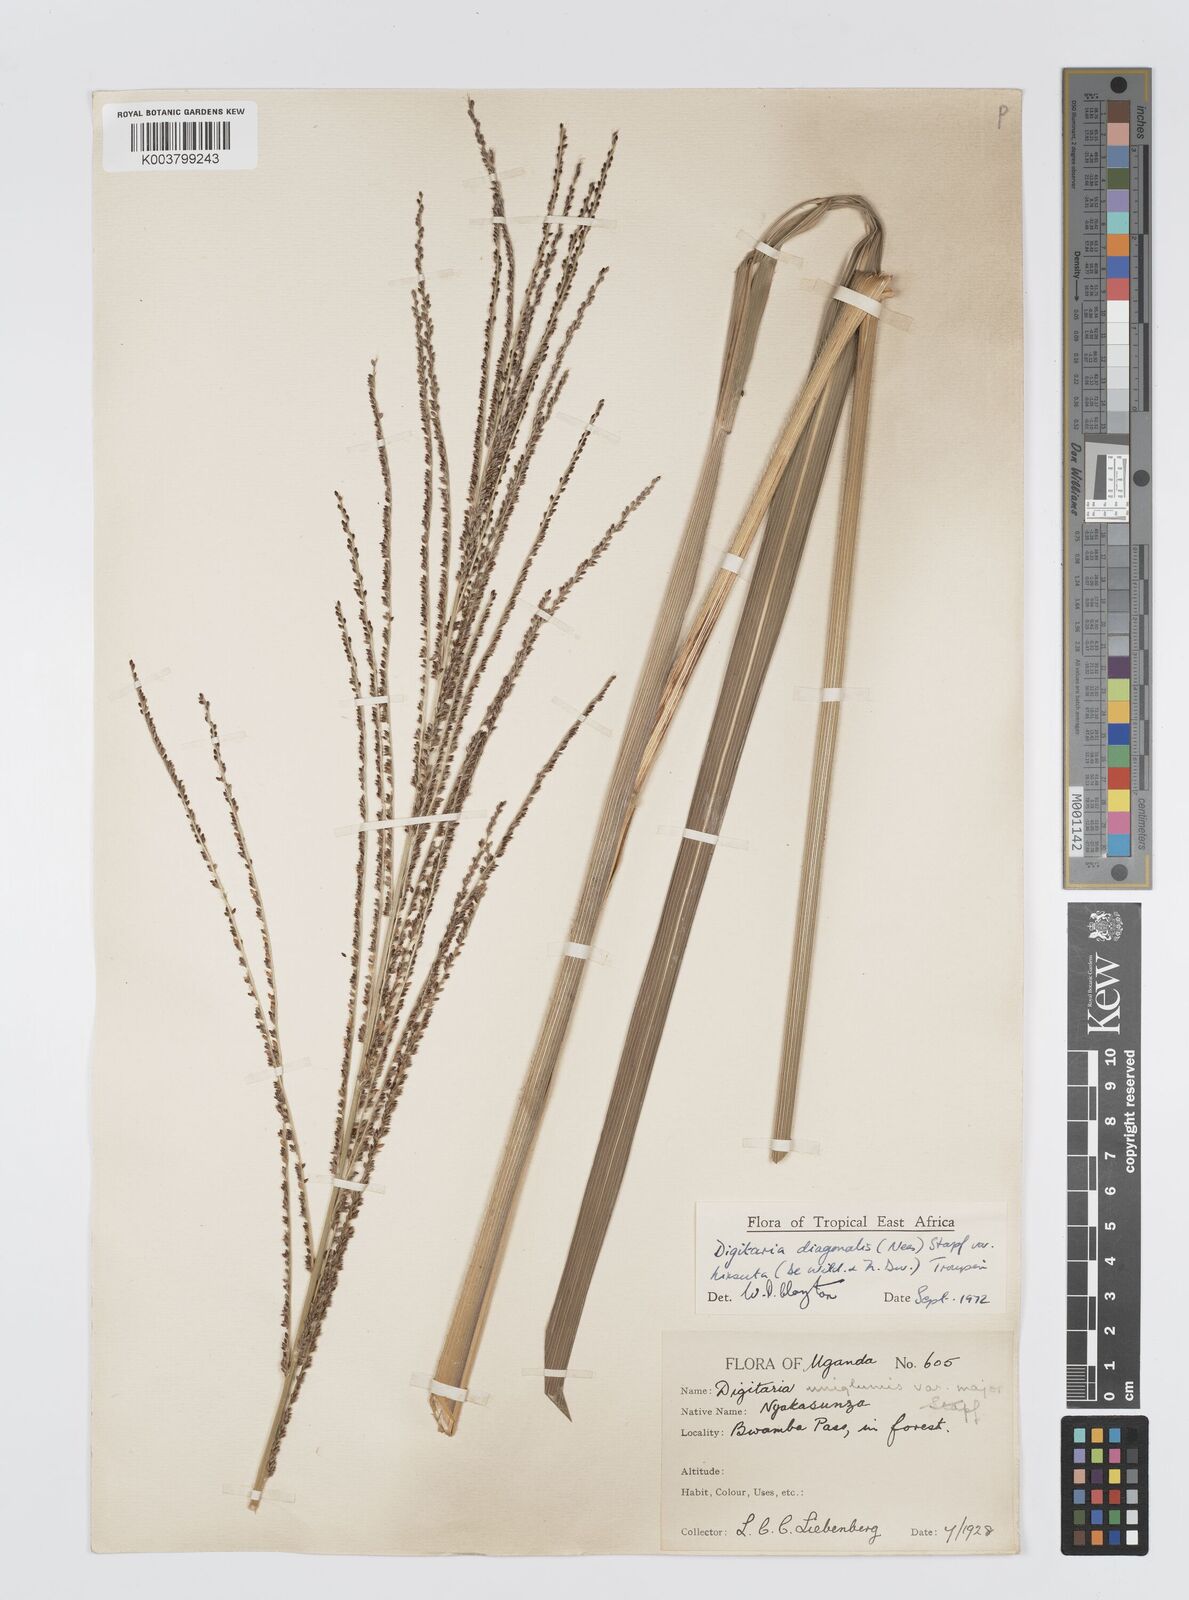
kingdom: Plantae
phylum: Tracheophyta
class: Liliopsida
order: Poales
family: Poaceae
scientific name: Poaceae
